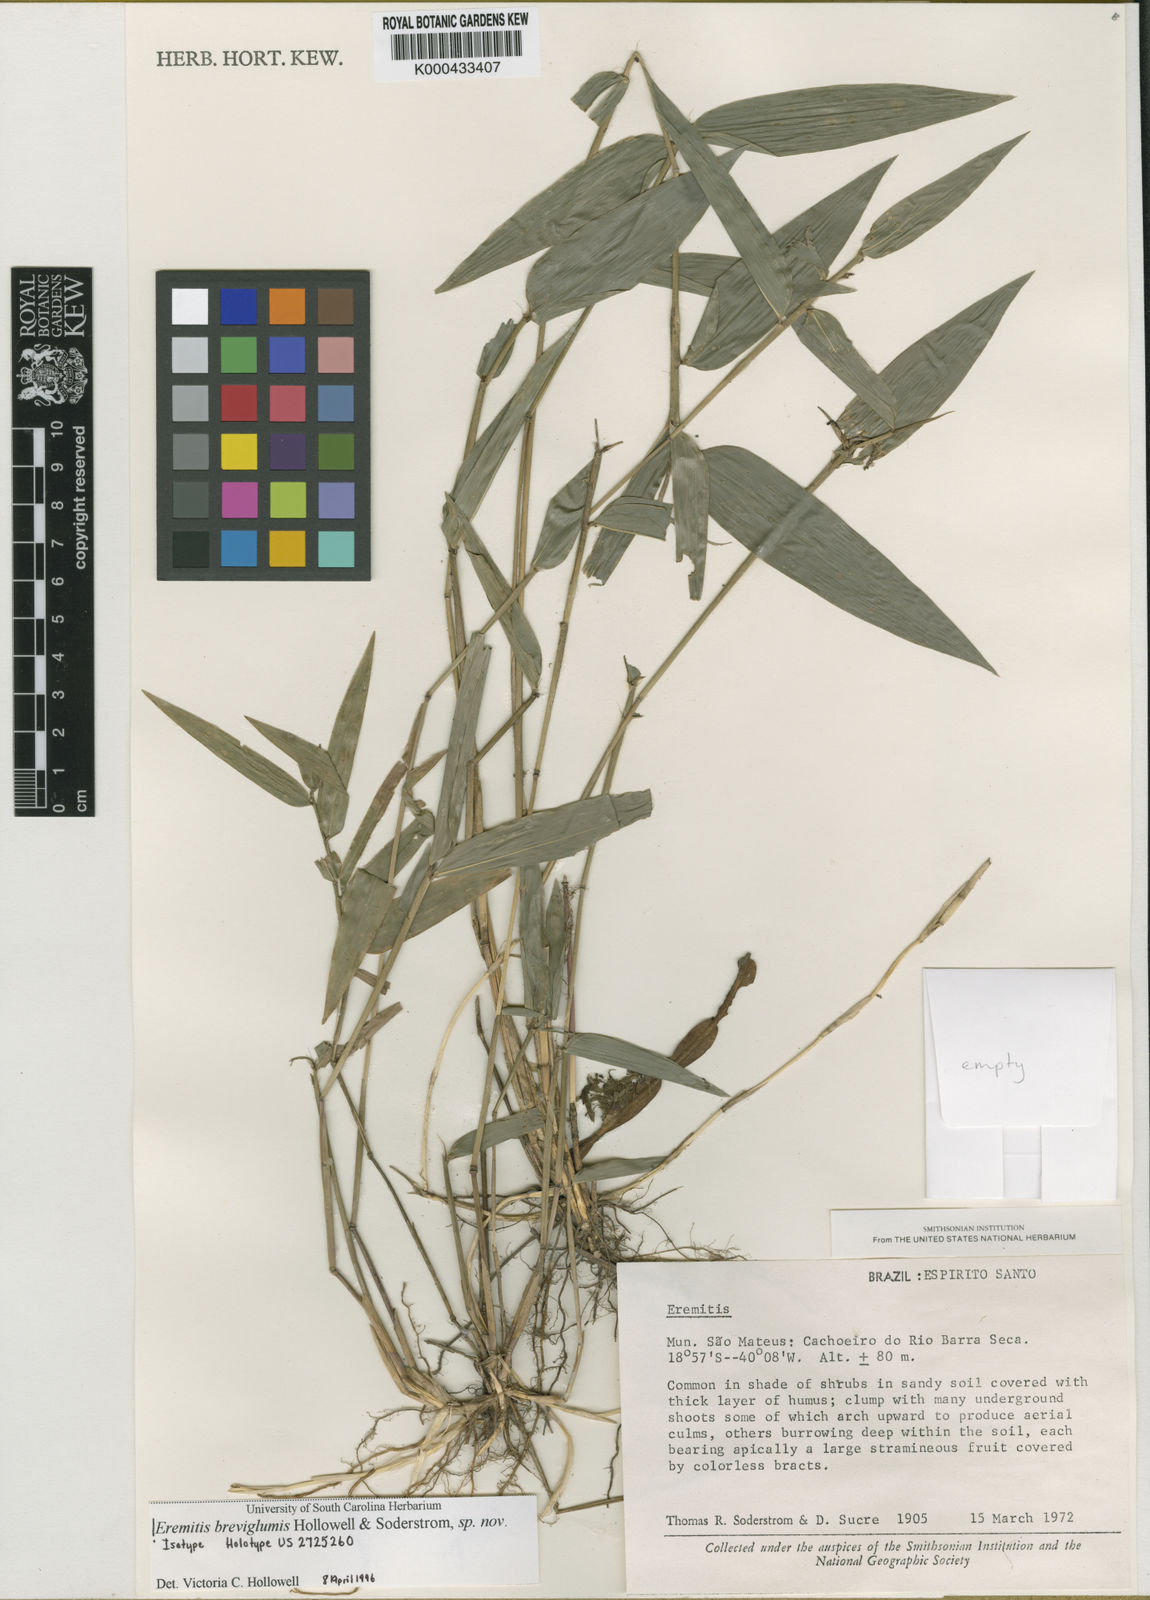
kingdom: Plantae
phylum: Tracheophyta
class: Liliopsida
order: Poales
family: Poaceae
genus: Eremitis
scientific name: Eremitis
